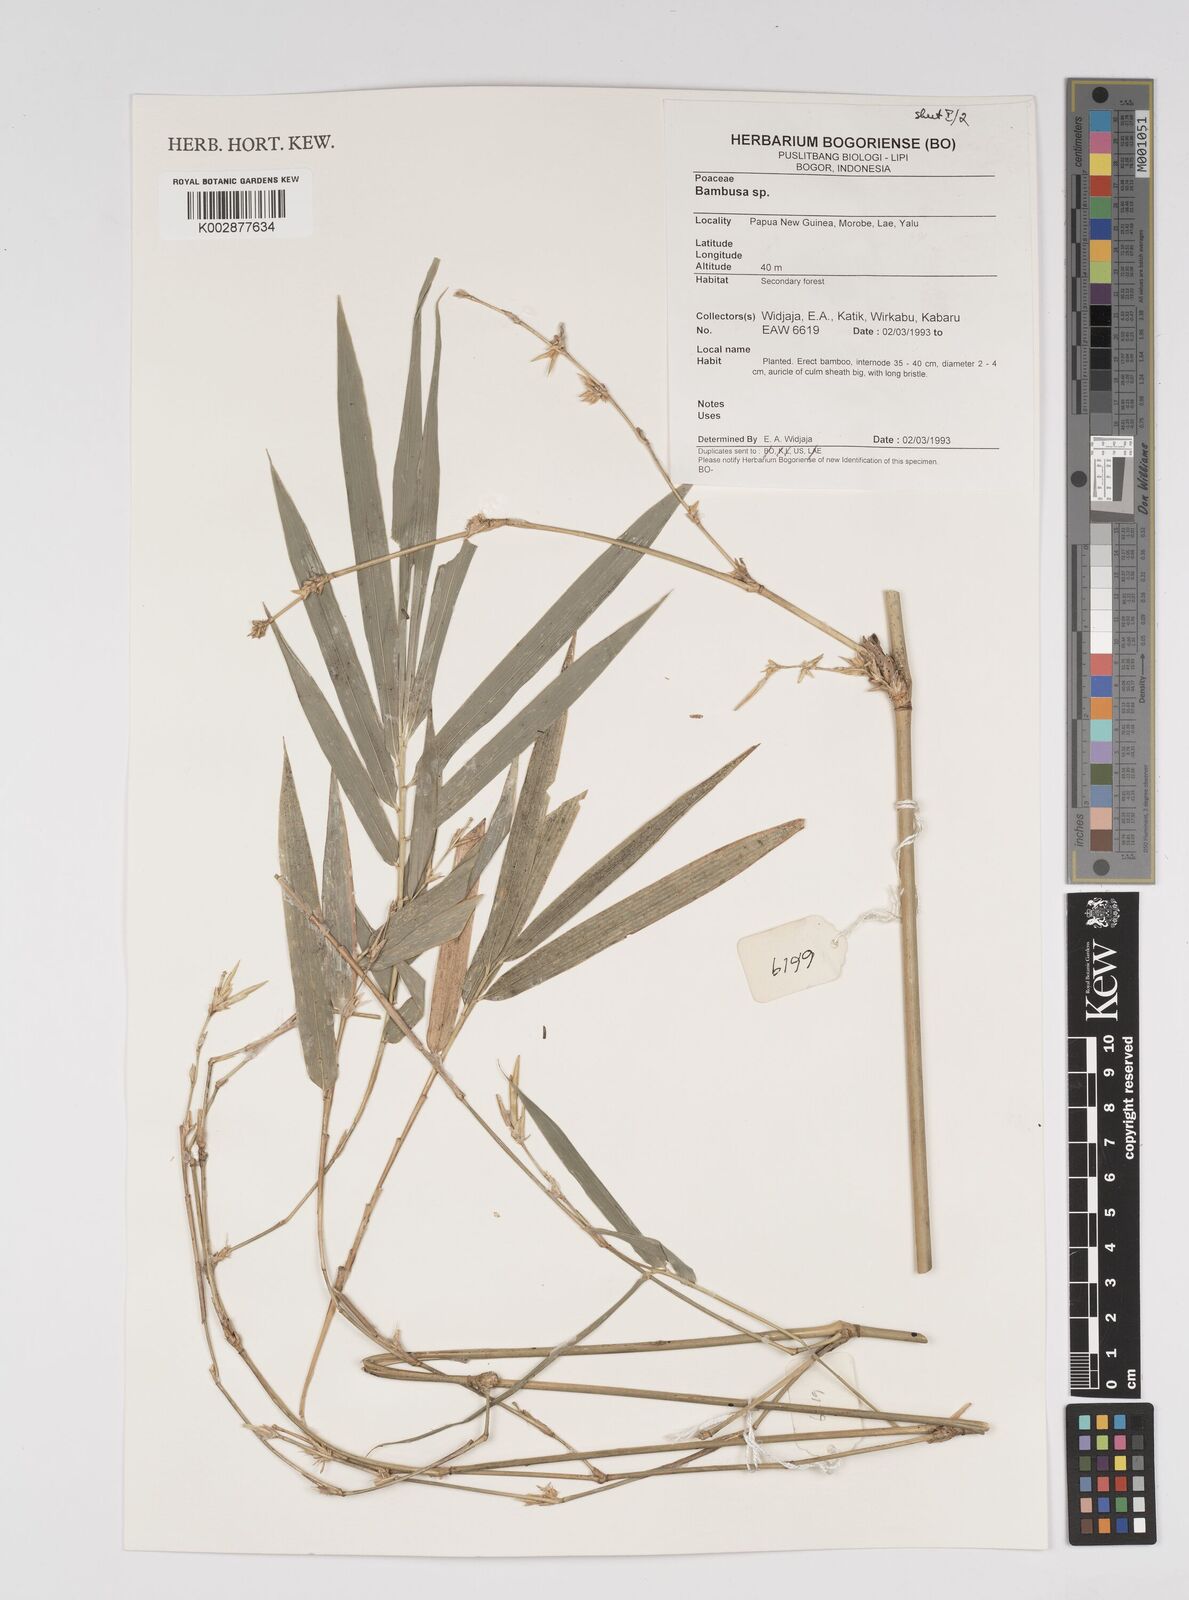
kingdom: Plantae
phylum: Tracheophyta
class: Liliopsida
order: Poales
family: Poaceae
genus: Bambusa
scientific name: Bambusa
